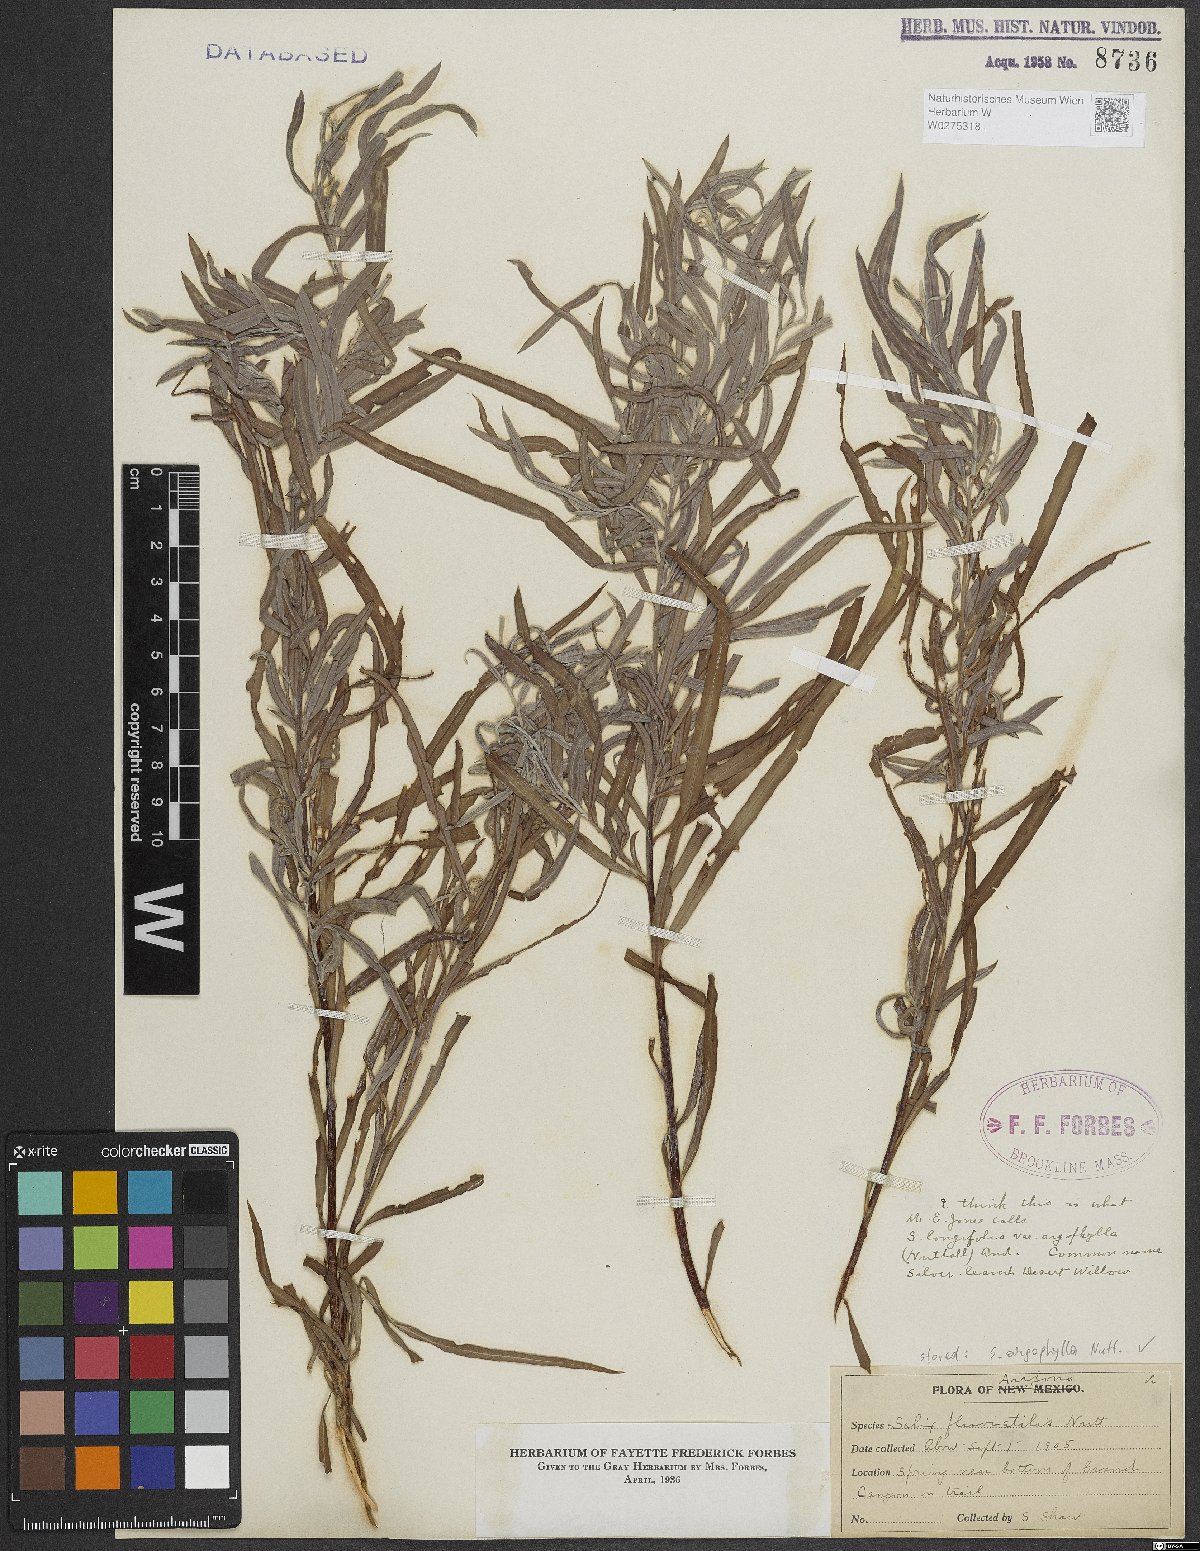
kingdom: Plantae
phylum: Tracheophyta
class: Magnoliopsida
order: Malpighiales
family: Salicaceae
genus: Salix
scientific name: Salix exigua
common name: Coyote willow
